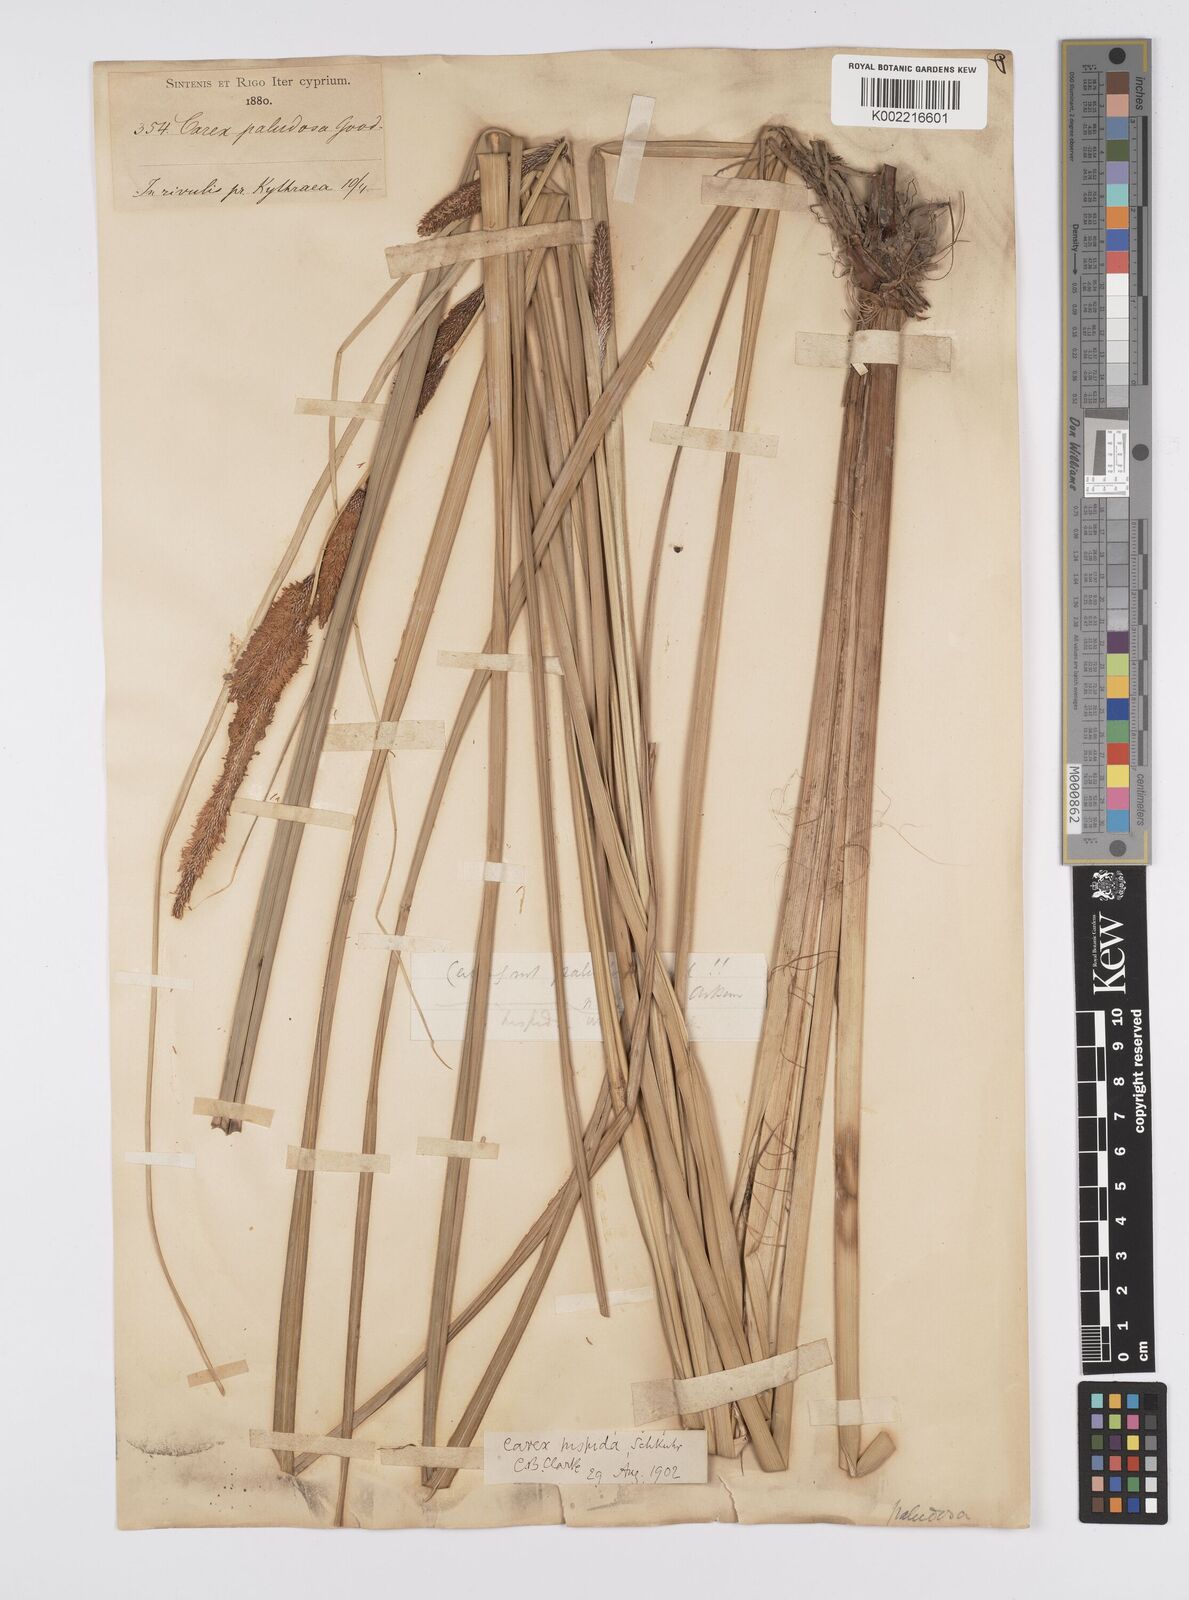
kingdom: Plantae
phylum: Tracheophyta
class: Liliopsida
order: Poales
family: Cyperaceae
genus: Carex
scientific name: Carex hispida
